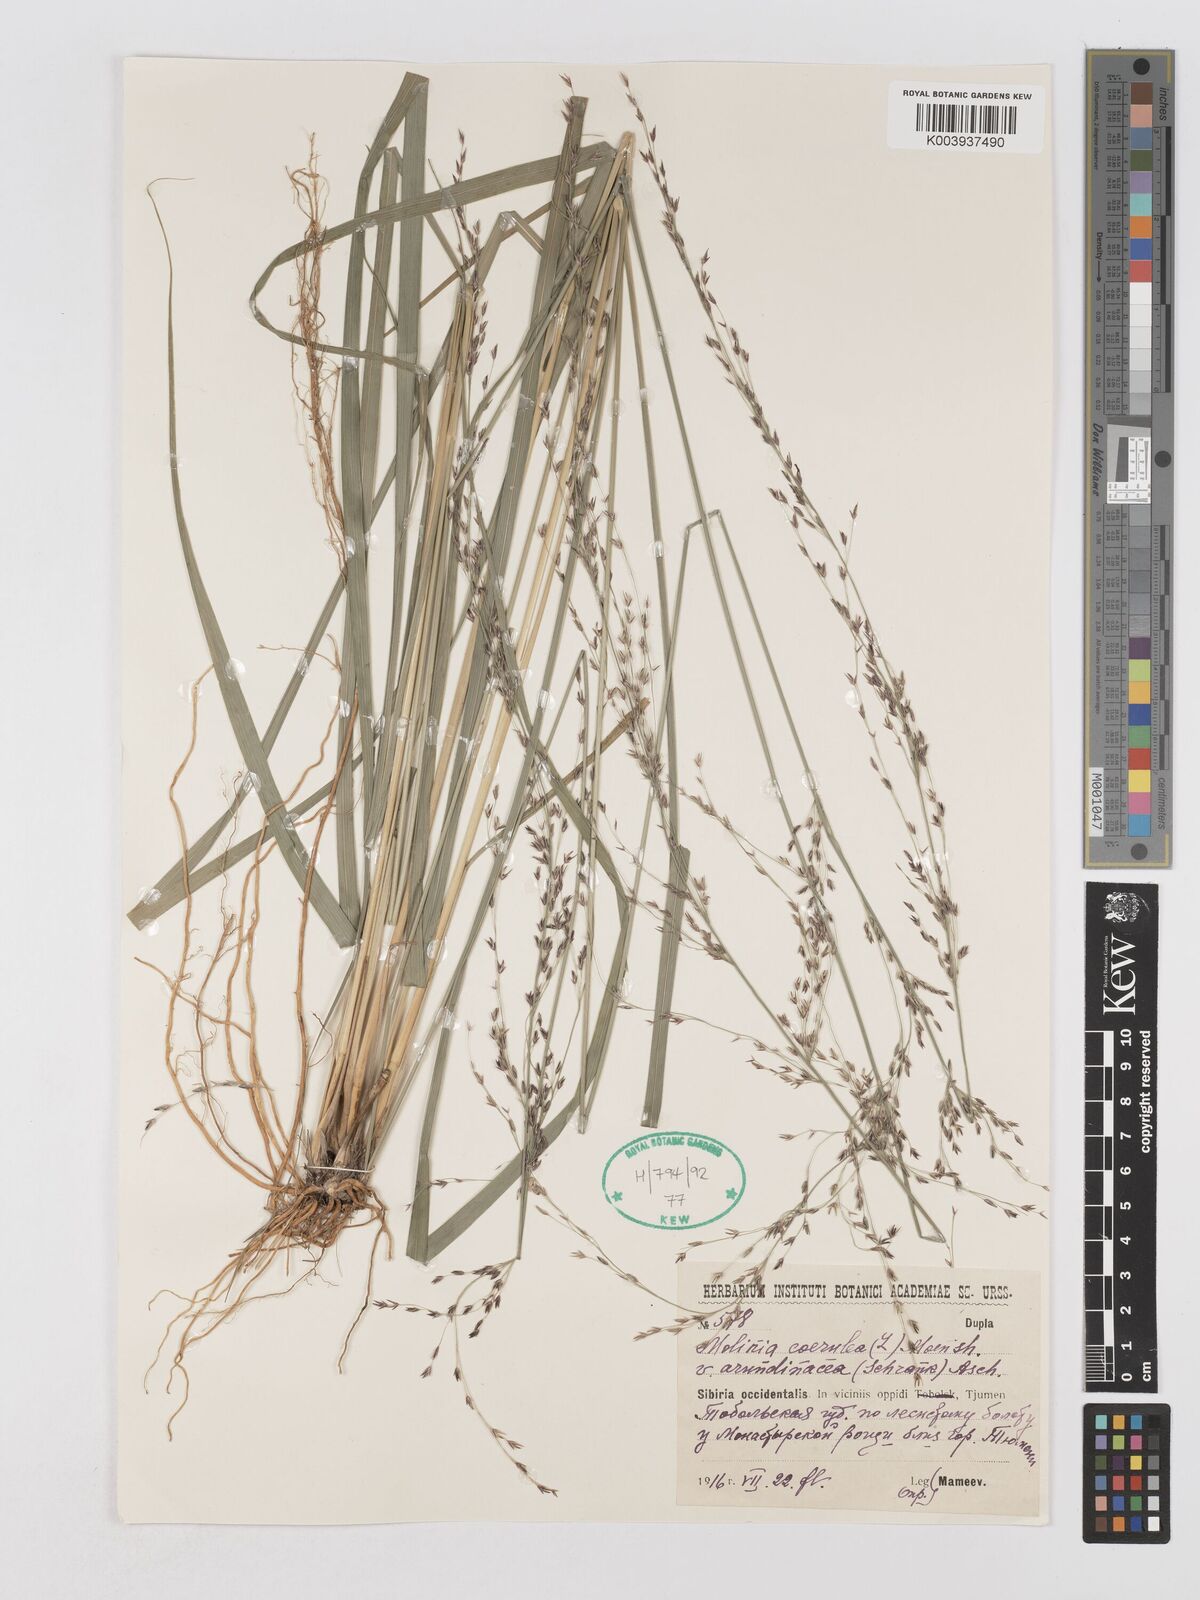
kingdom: Plantae
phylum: Tracheophyta
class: Liliopsida
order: Poales
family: Poaceae
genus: Molinia
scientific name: Molinia caerulea
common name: Purple moor-grass
